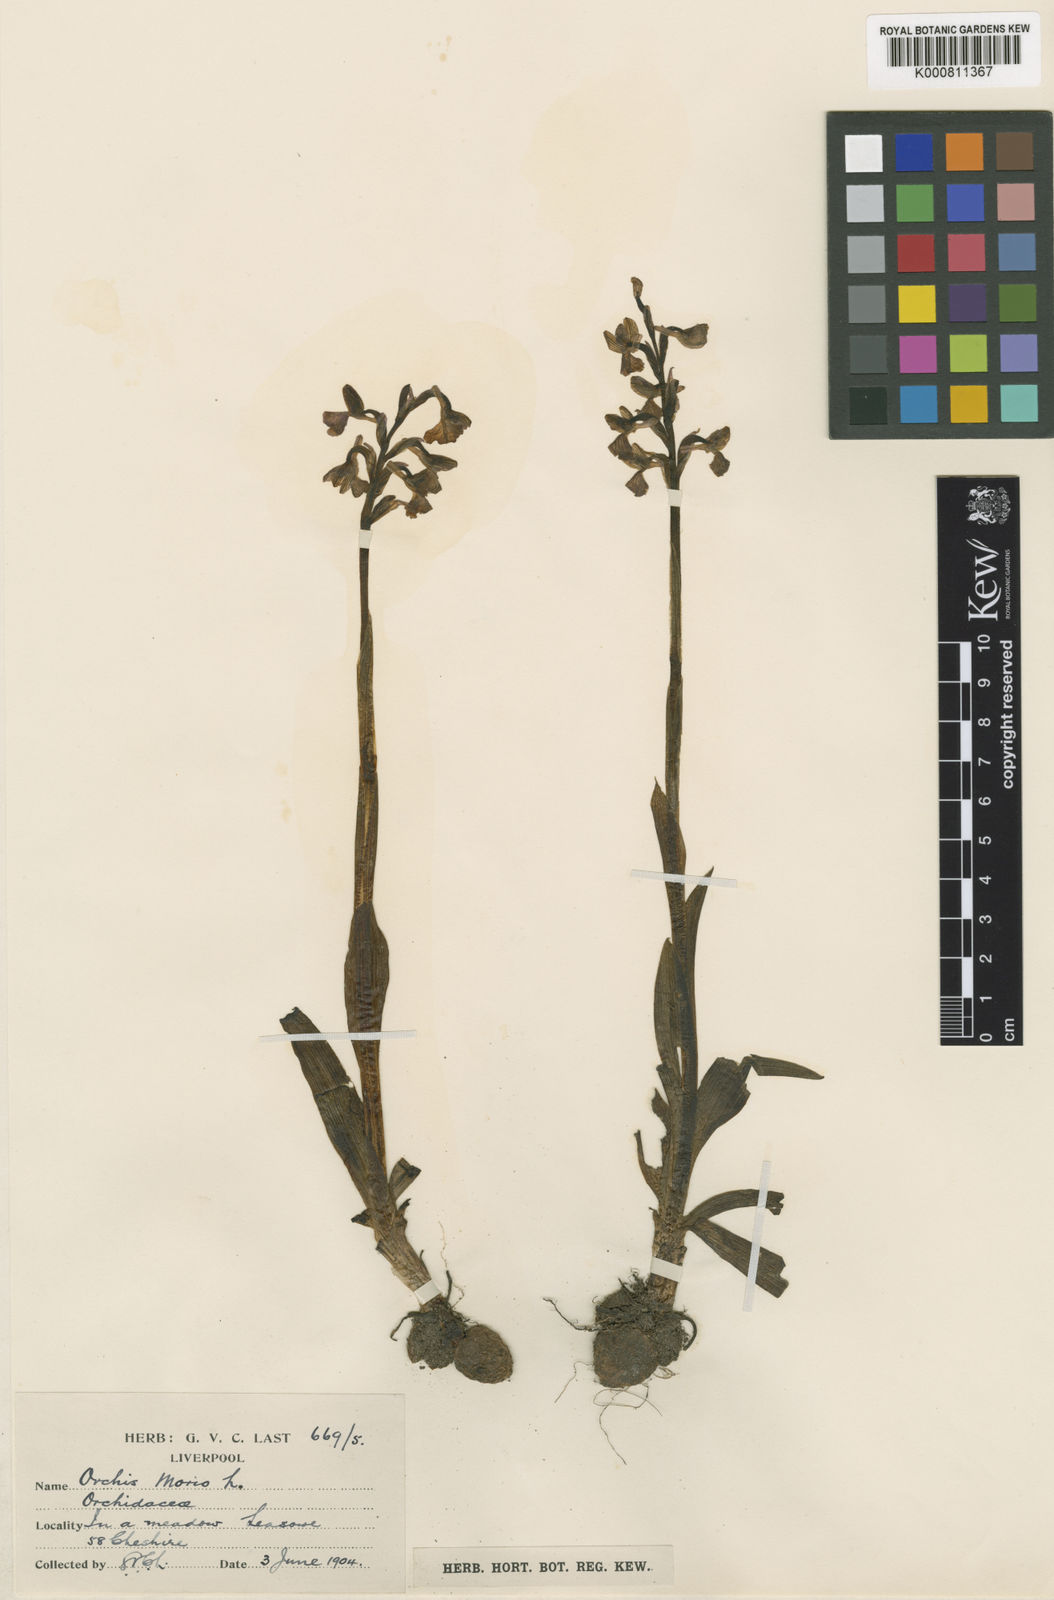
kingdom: Plantae
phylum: Tracheophyta
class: Liliopsida
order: Asparagales
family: Orchidaceae
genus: Anacamptis
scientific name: Anacamptis morio
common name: Green-winged orchid
